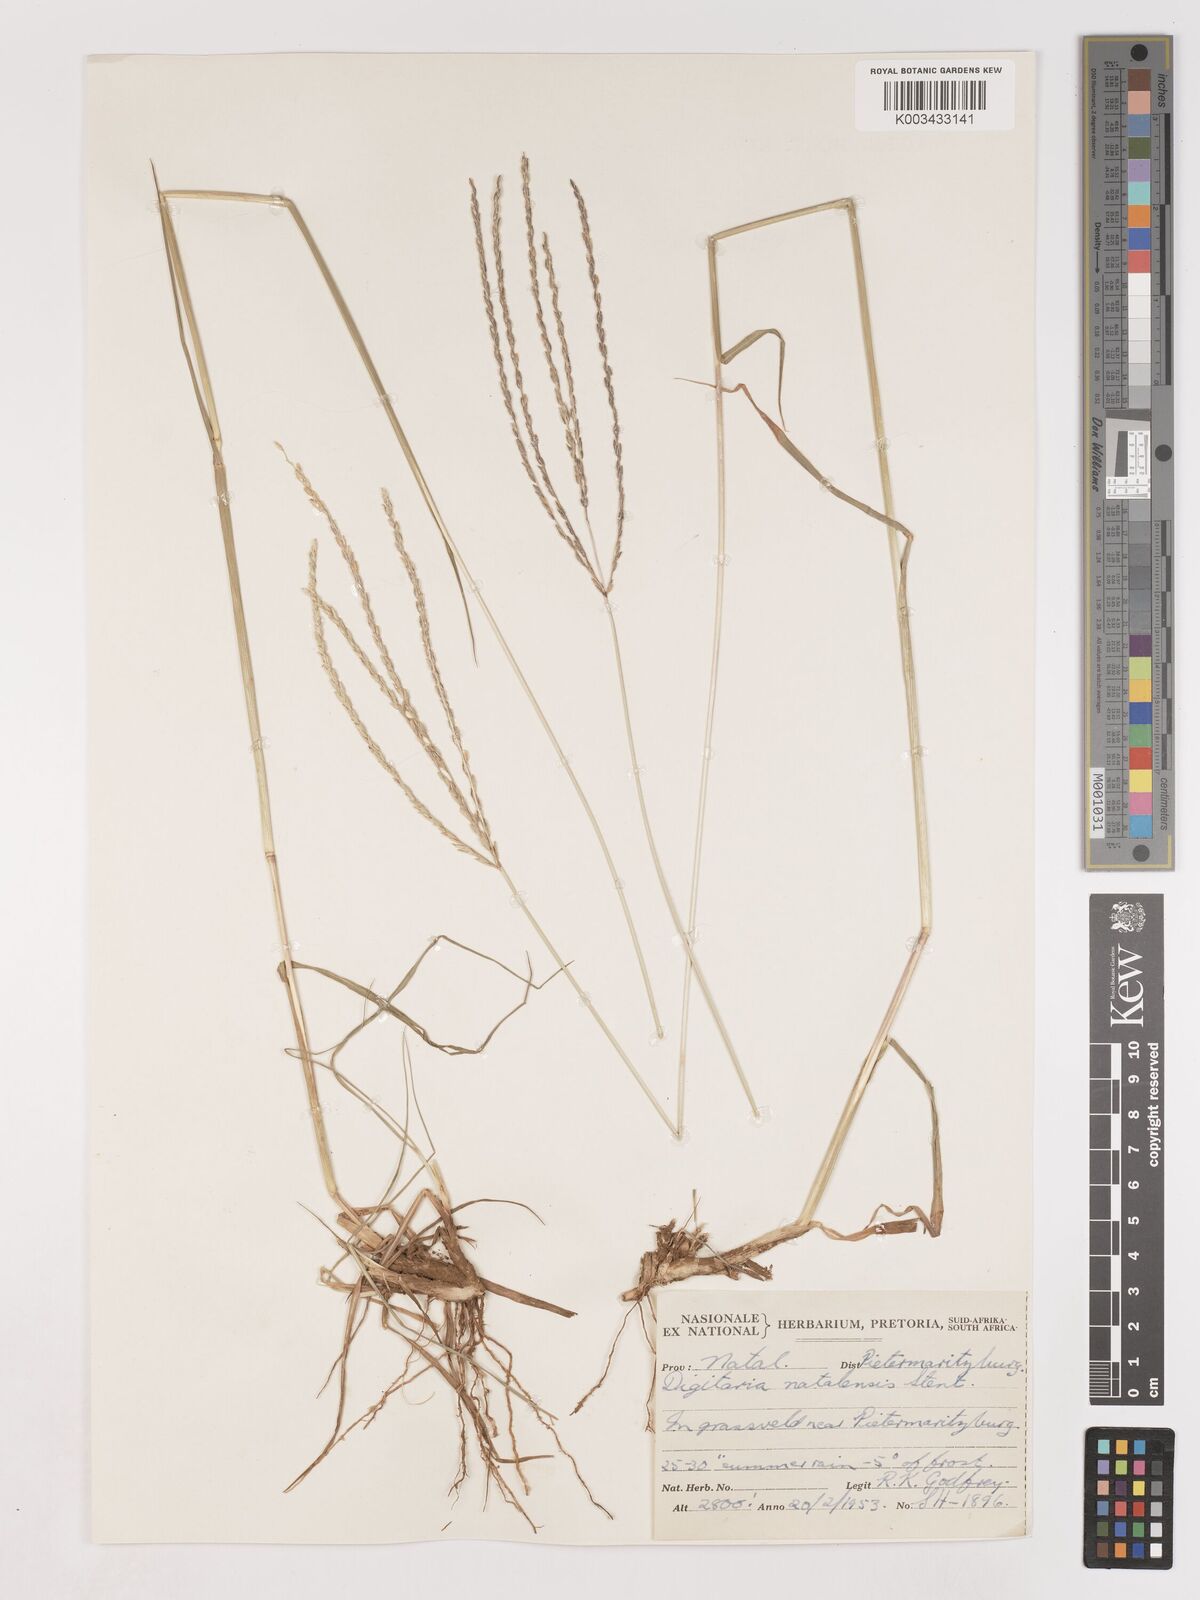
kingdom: Plantae
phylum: Tracheophyta
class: Liliopsida
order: Poales
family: Poaceae
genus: Digitaria
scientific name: Digitaria natalensis
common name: Coast finger grass
